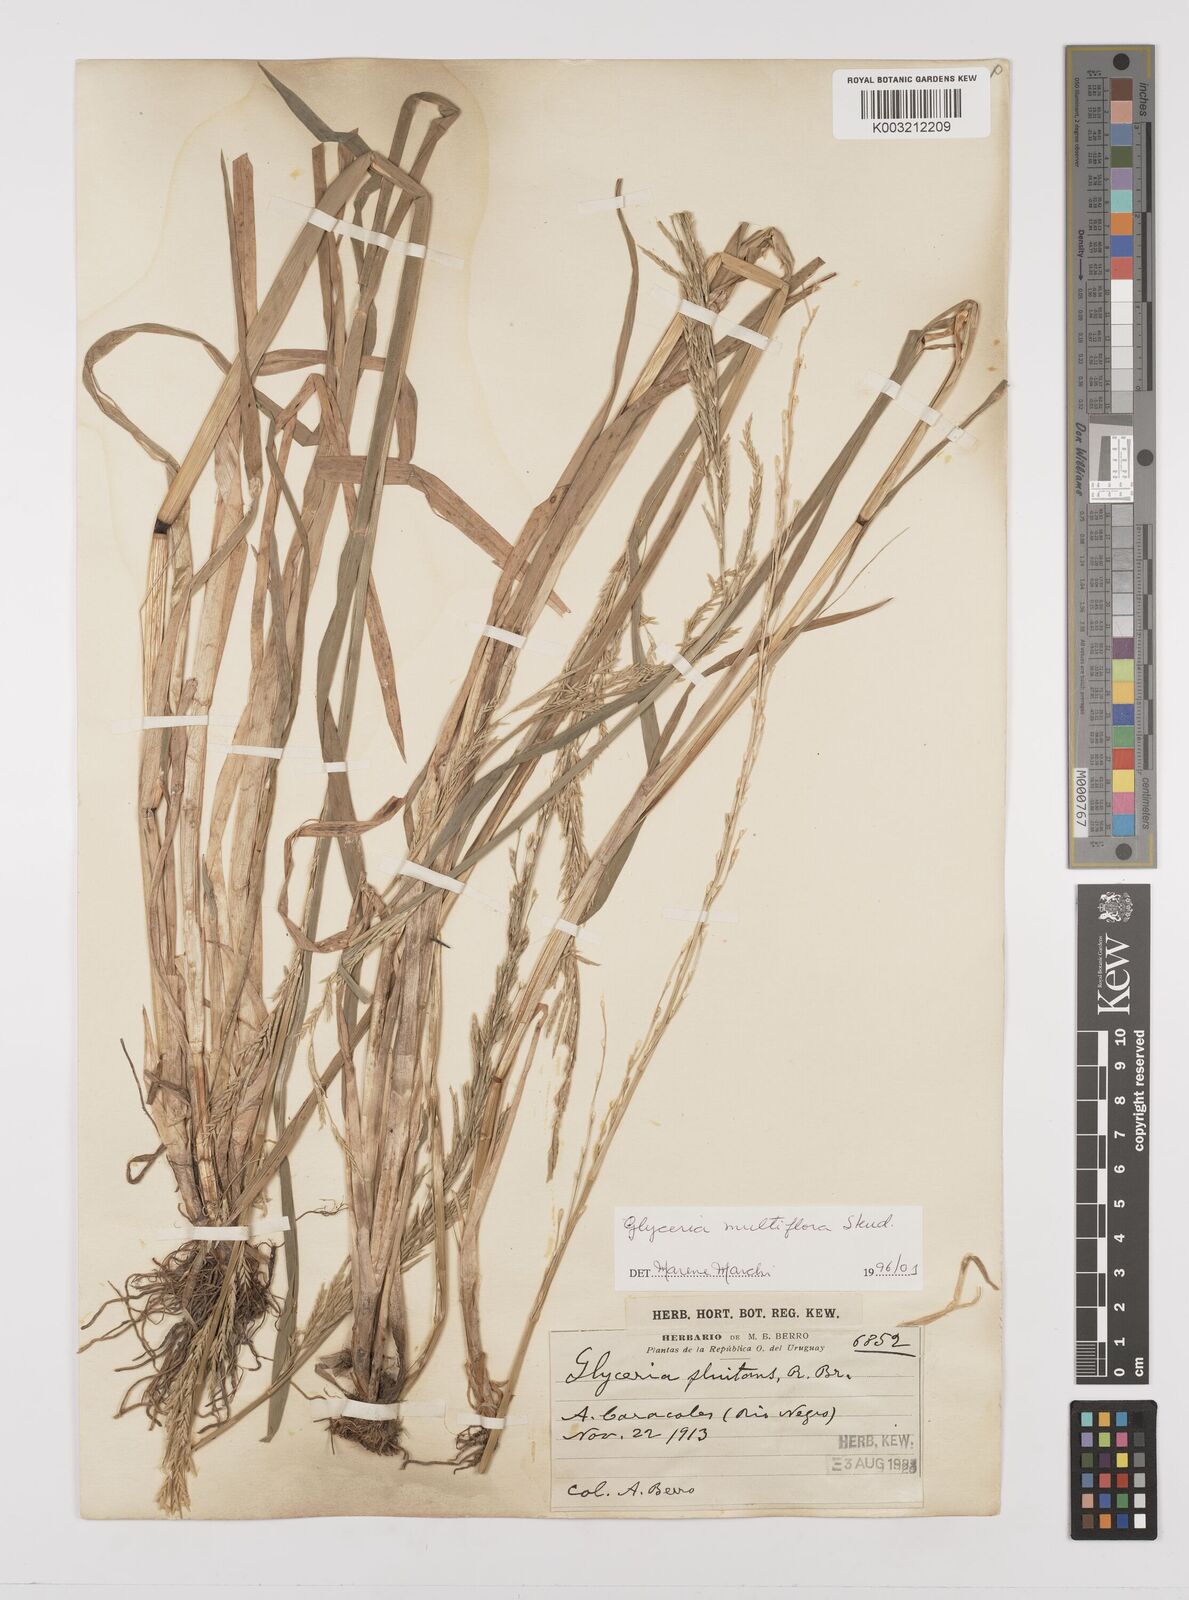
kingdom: Plantae
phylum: Tracheophyta
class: Liliopsida
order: Poales
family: Poaceae
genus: Glyceria
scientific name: Glyceria multiflora
